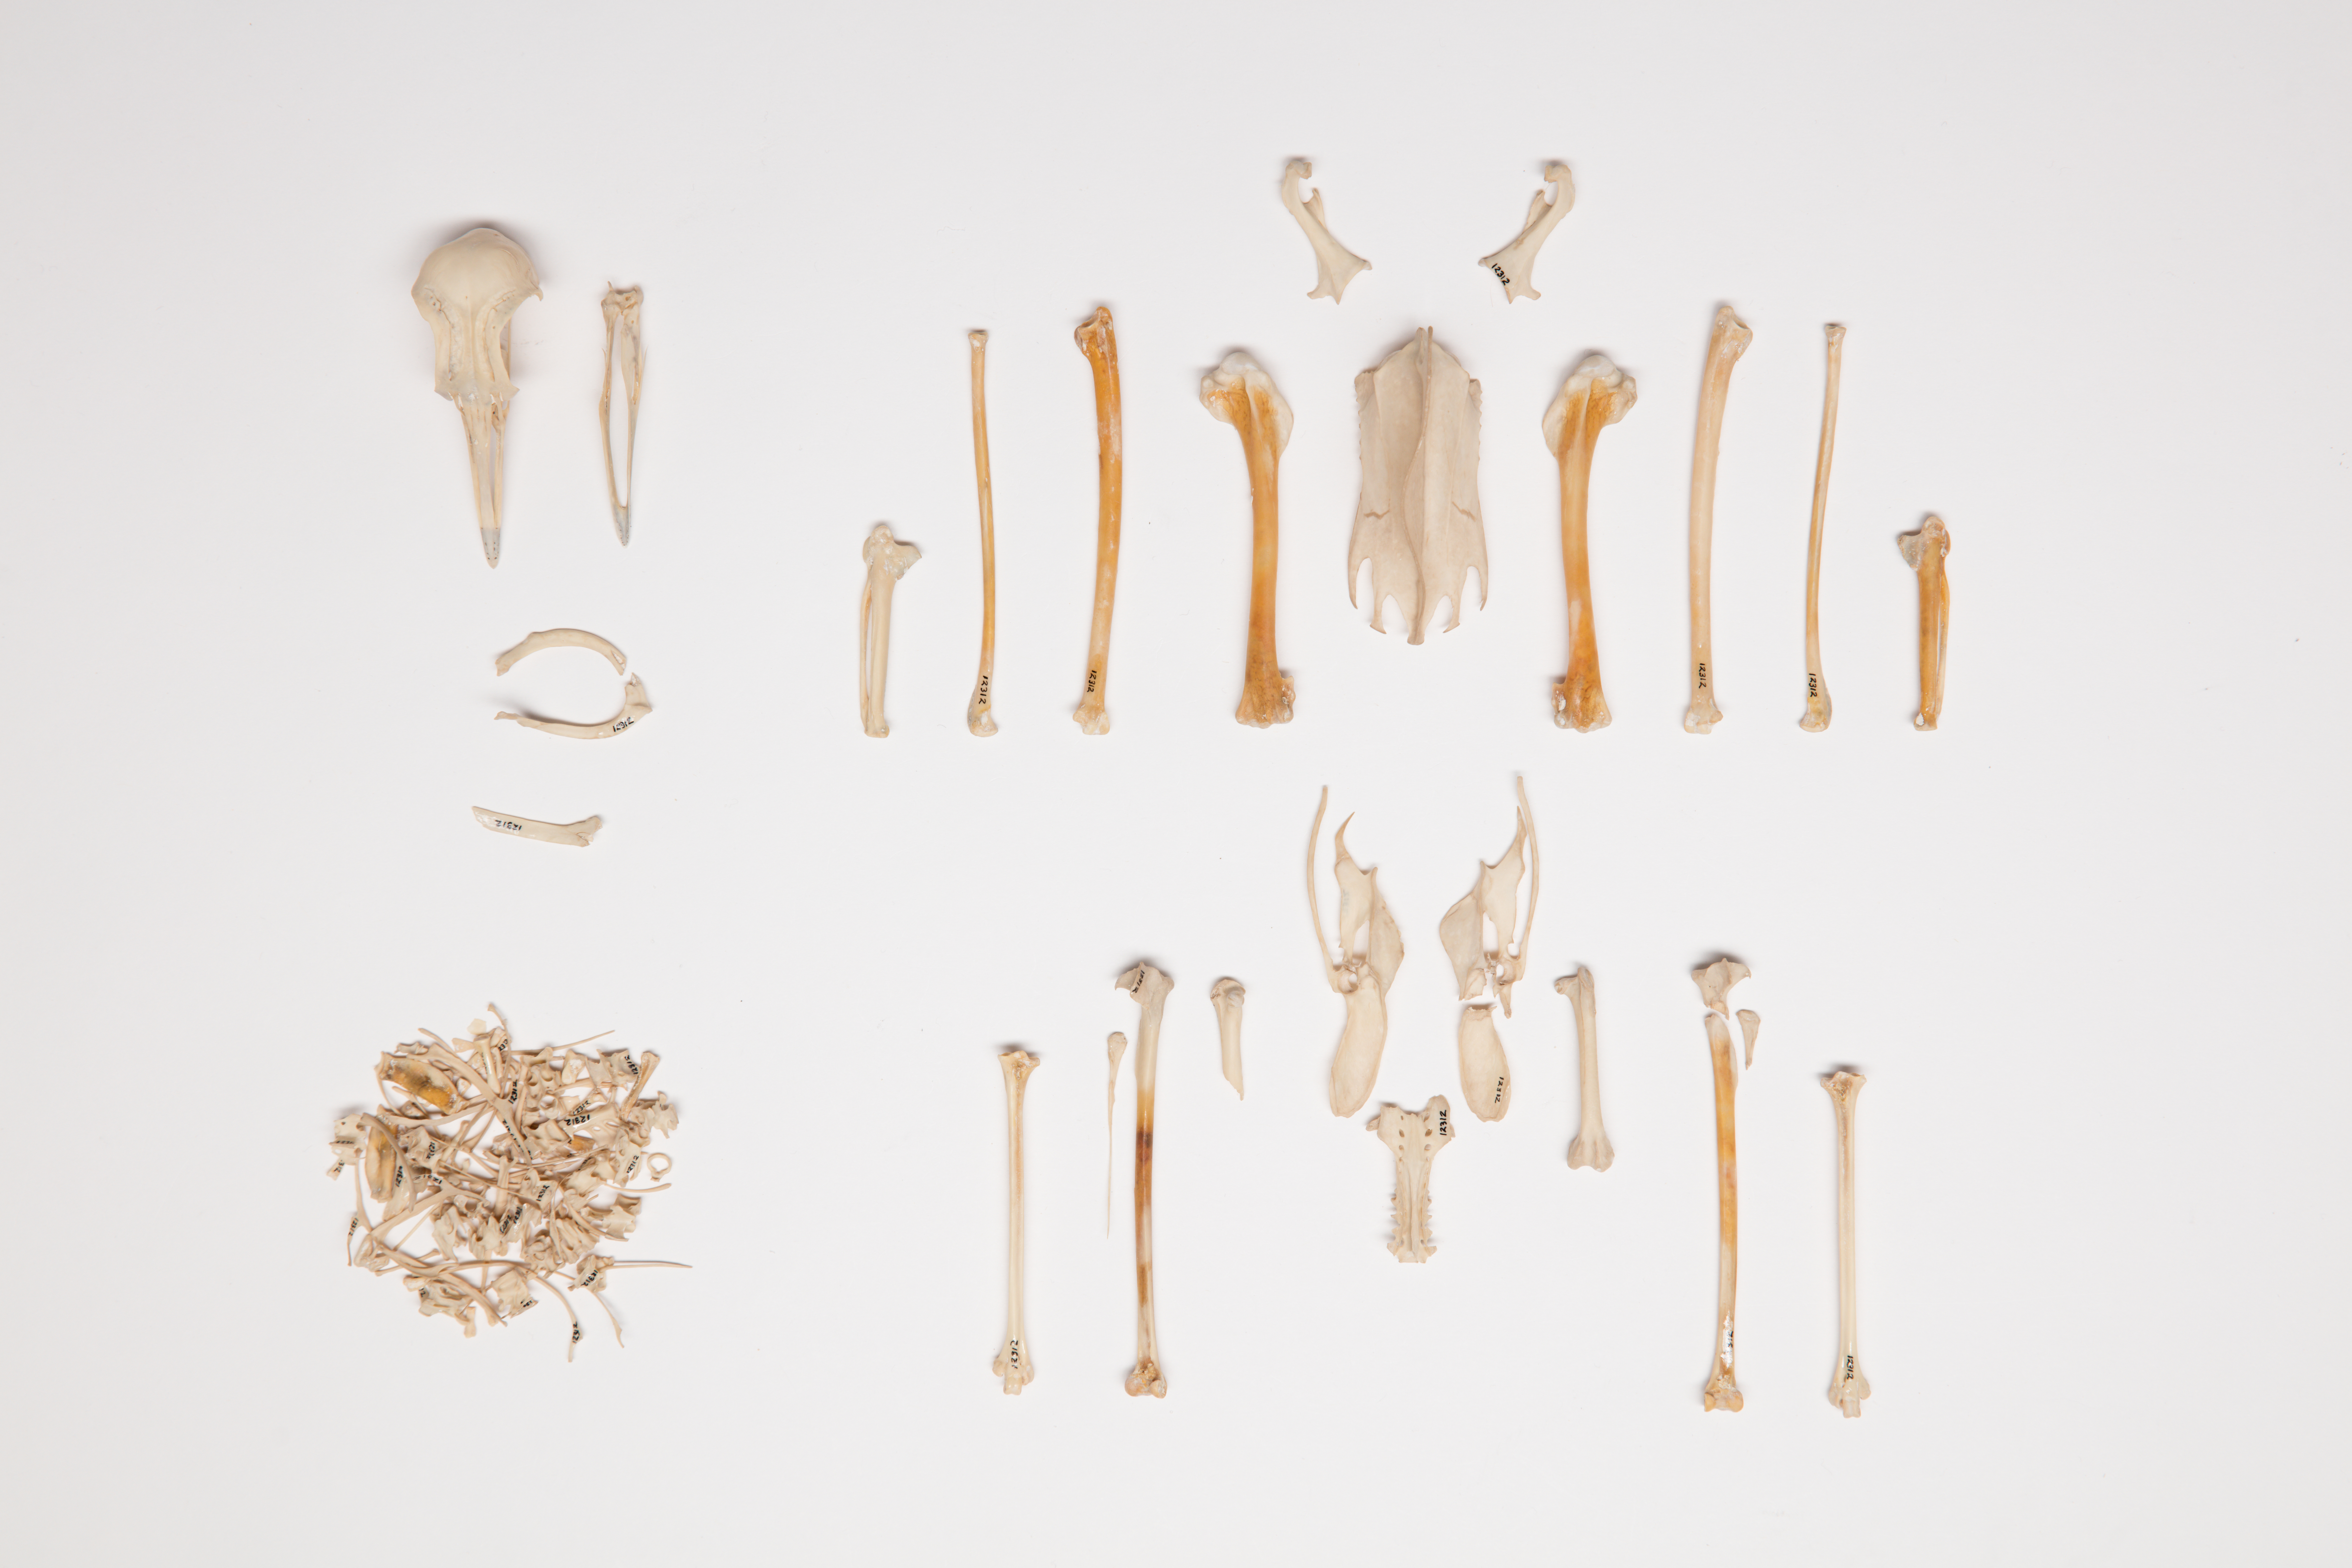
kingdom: Animalia
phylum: Chordata
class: Aves
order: Charadriiformes
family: Charadriidae
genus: Vanellus
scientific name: Vanellus miles
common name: Masked lapwing
